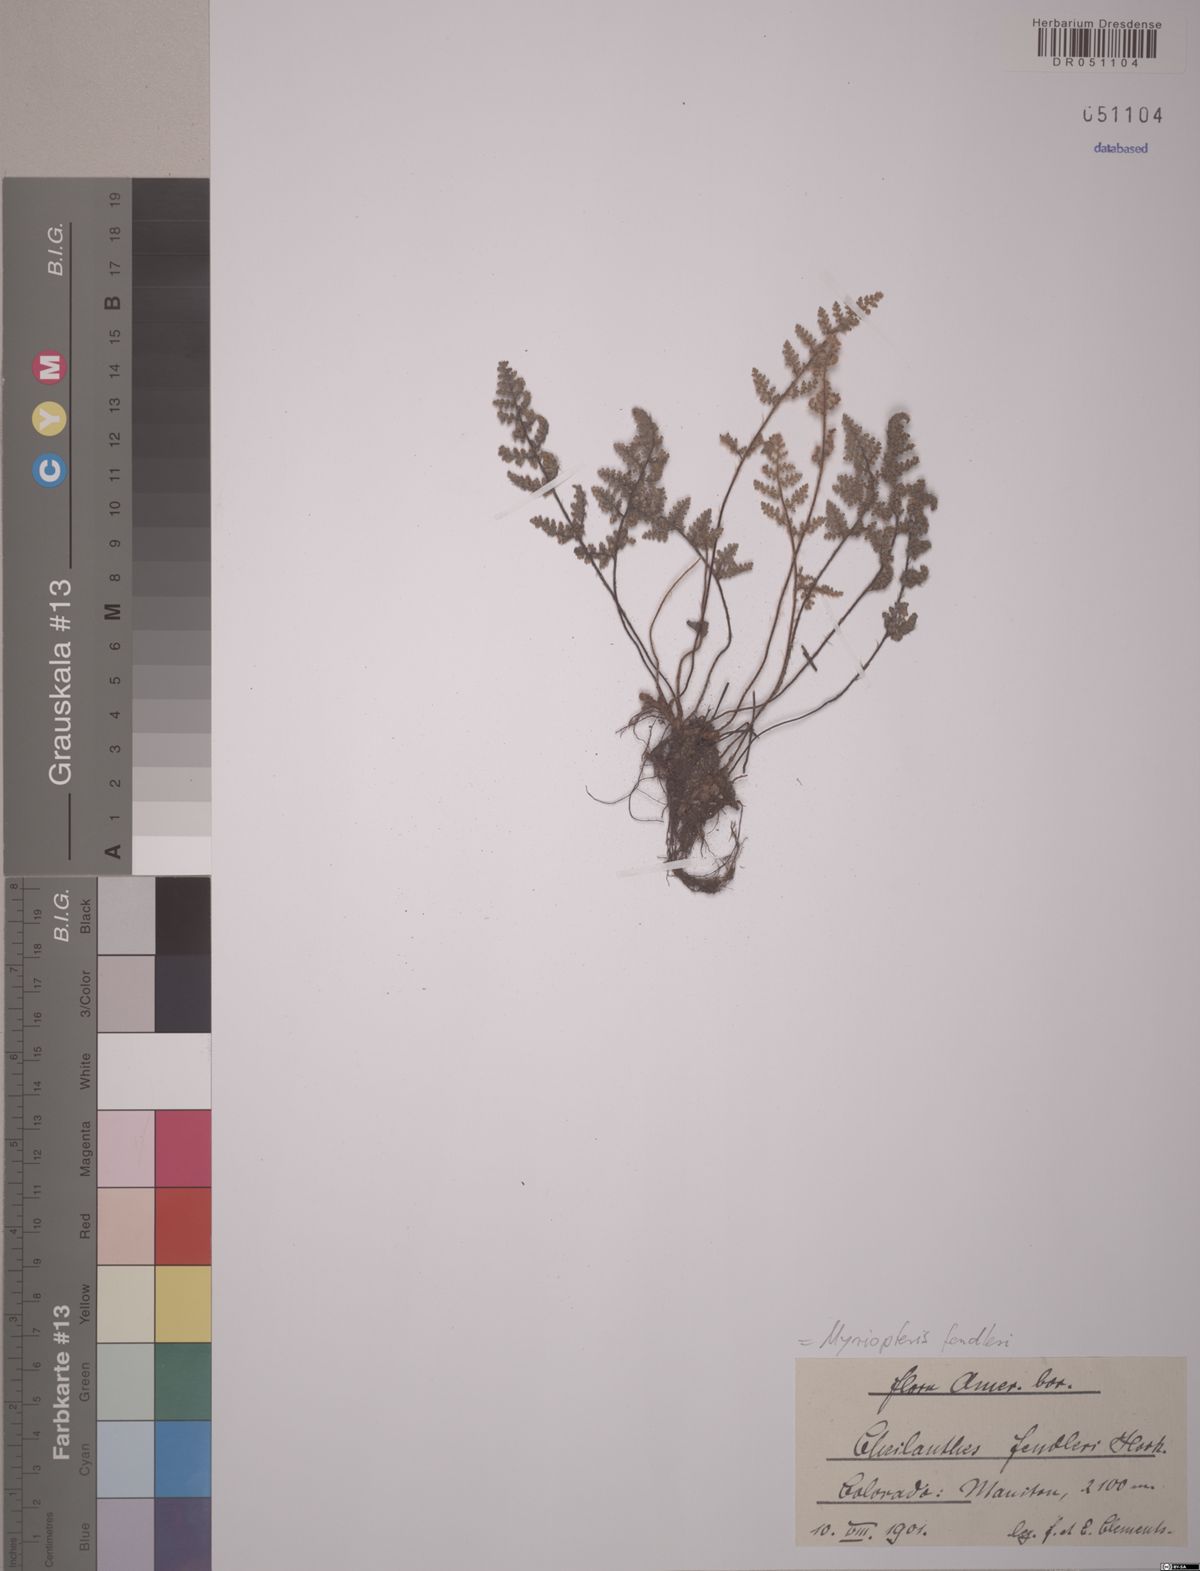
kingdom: Plantae
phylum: Tracheophyta
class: Polypodiopsida
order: Polypodiales
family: Pteridaceae
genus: Myriopteris
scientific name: Myriopteris fendleri
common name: Fendler's lip fern
